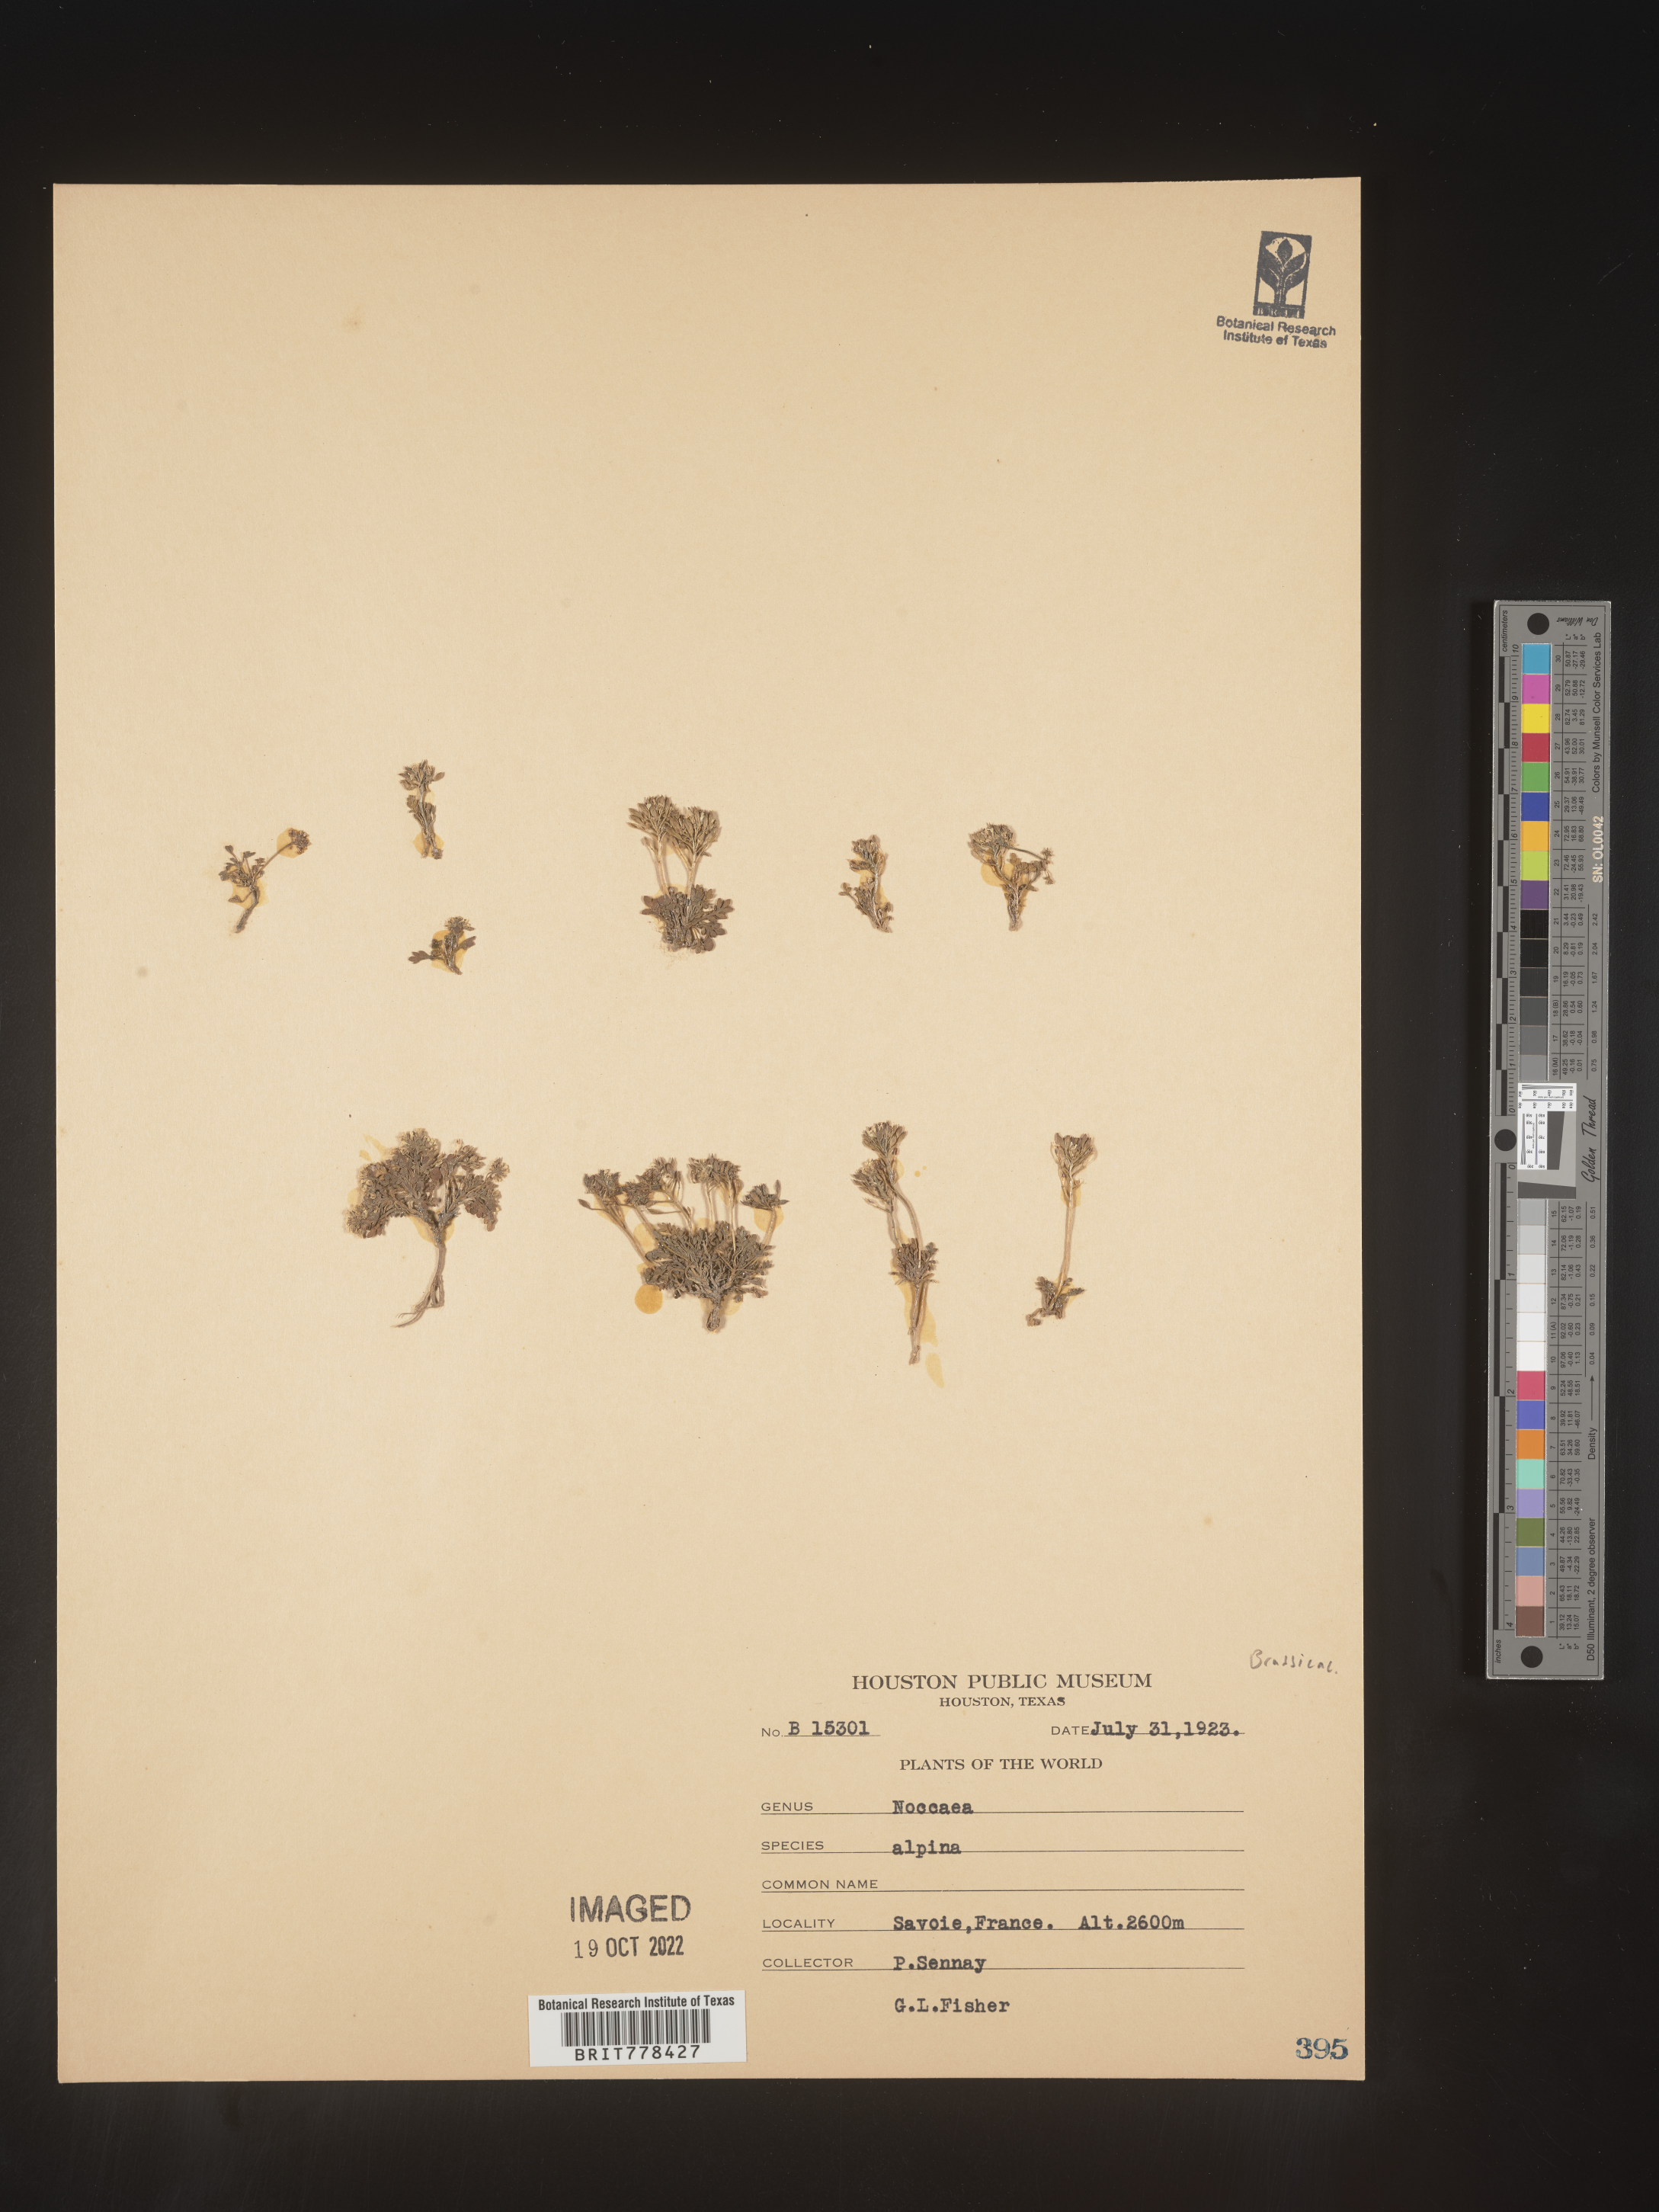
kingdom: Plantae
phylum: Tracheophyta
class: Magnoliopsida
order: Brassicales
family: Brassicaceae
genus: Noccaea
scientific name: Noccaea
